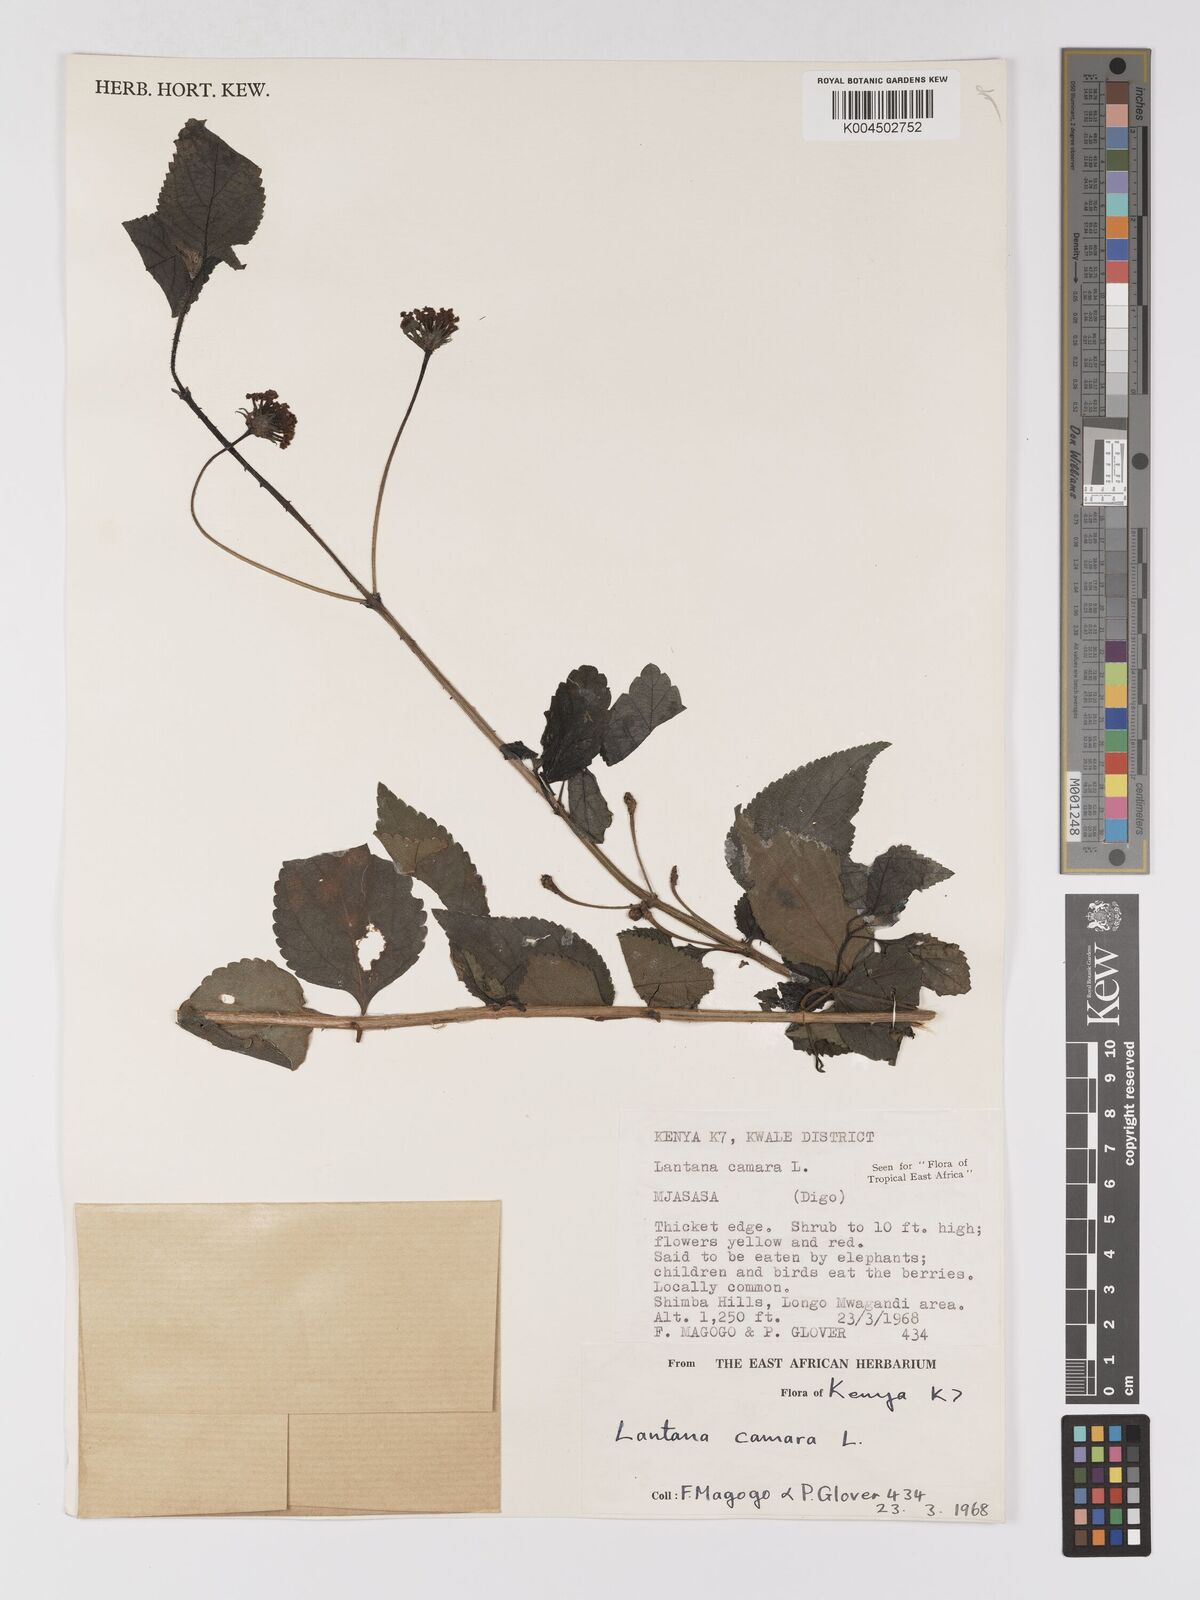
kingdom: Plantae
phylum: Tracheophyta
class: Magnoliopsida
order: Lamiales
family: Verbenaceae
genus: Lantana
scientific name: Lantana camara
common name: Lantana
